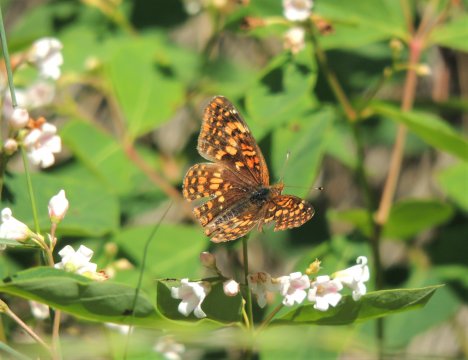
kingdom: Animalia
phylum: Arthropoda
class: Insecta
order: Lepidoptera
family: Nymphalidae
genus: Phyciodes
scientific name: Phyciodes tharos
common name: Field Crescent
